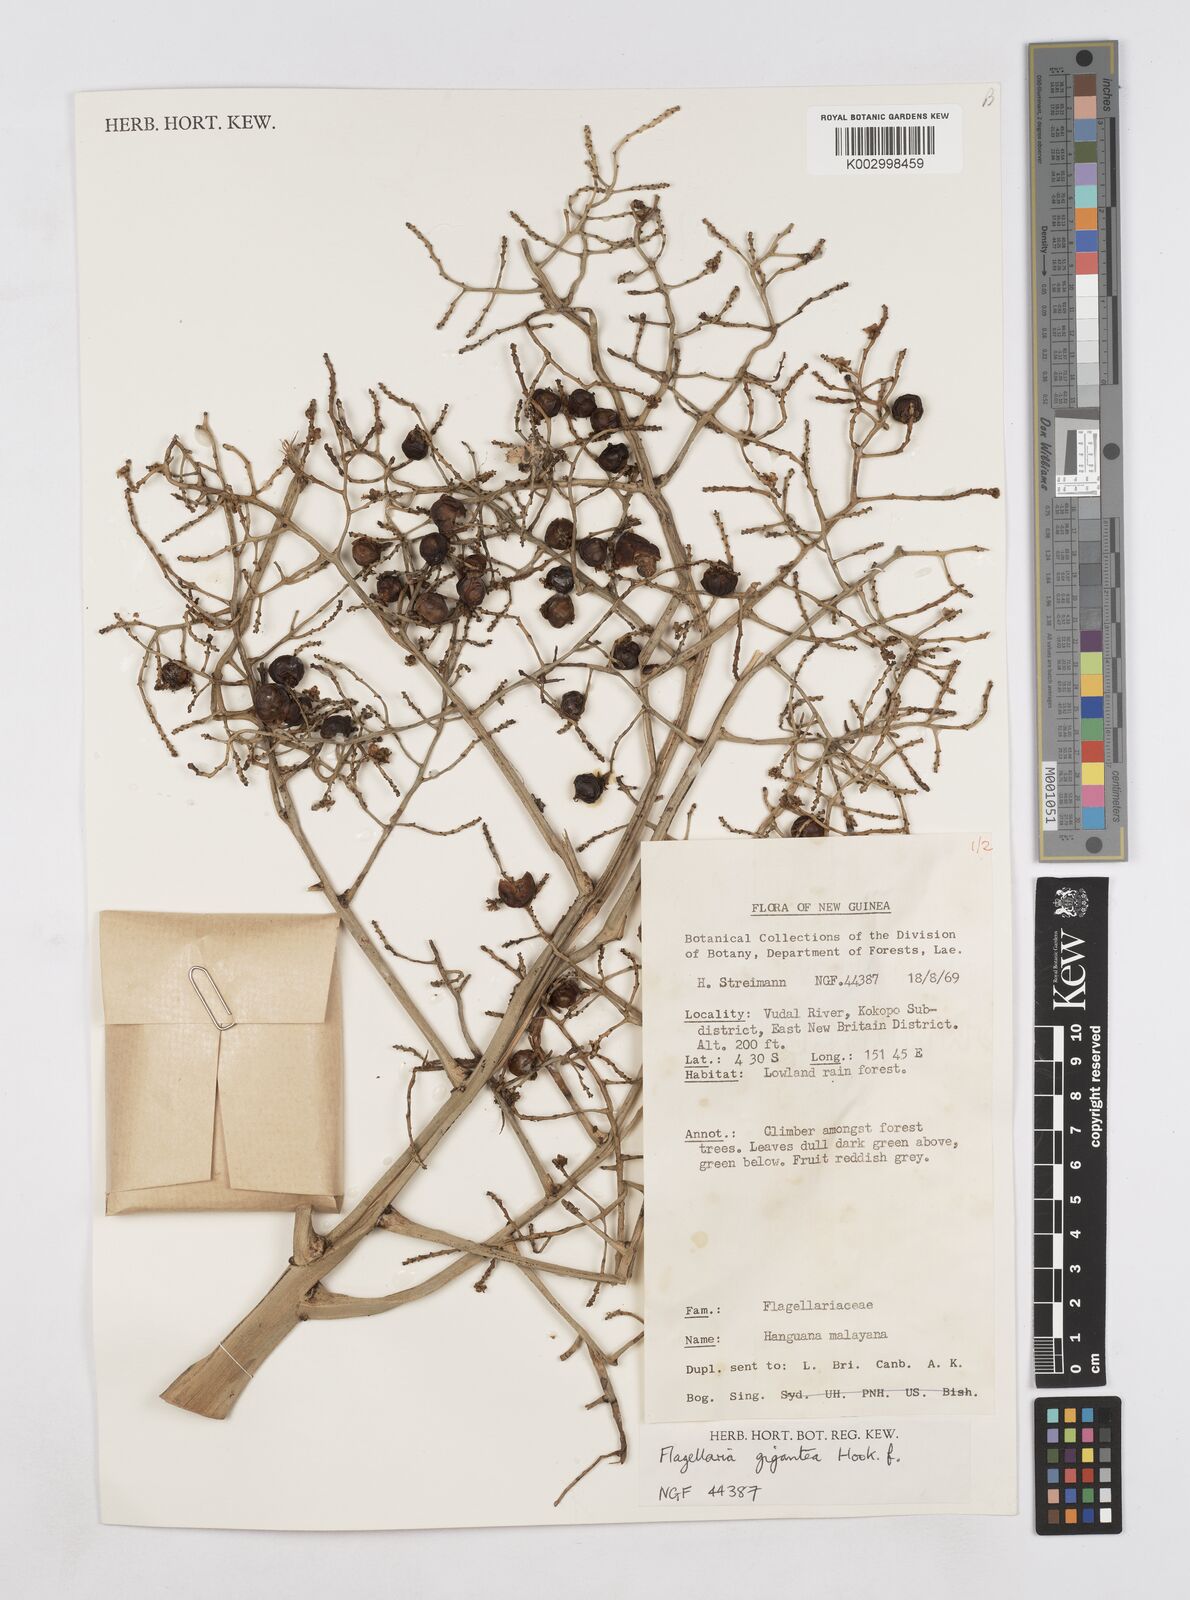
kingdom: Plantae
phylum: Tracheophyta
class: Liliopsida
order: Poales
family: Flagellariaceae
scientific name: Flagellariaceae
